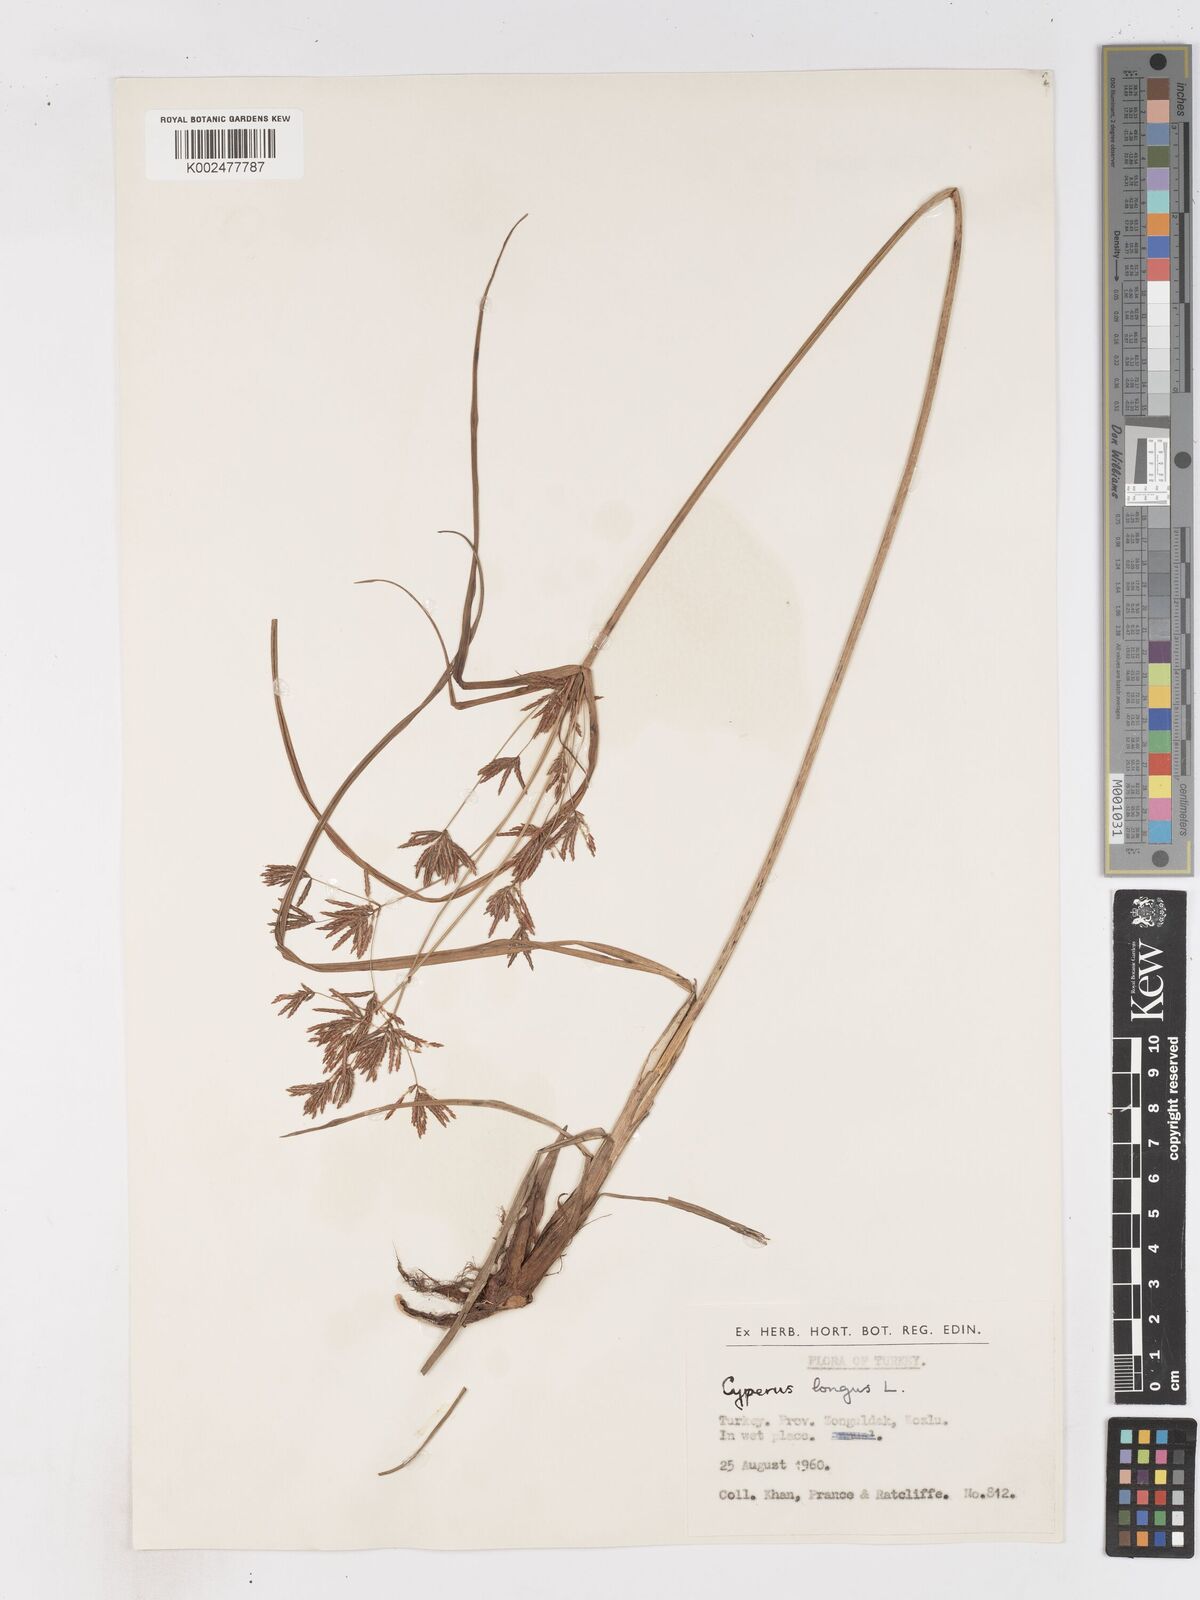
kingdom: Plantae
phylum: Tracheophyta
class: Liliopsida
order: Poales
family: Cyperaceae
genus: Cyperus
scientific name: Cyperus longus
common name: Galingale
